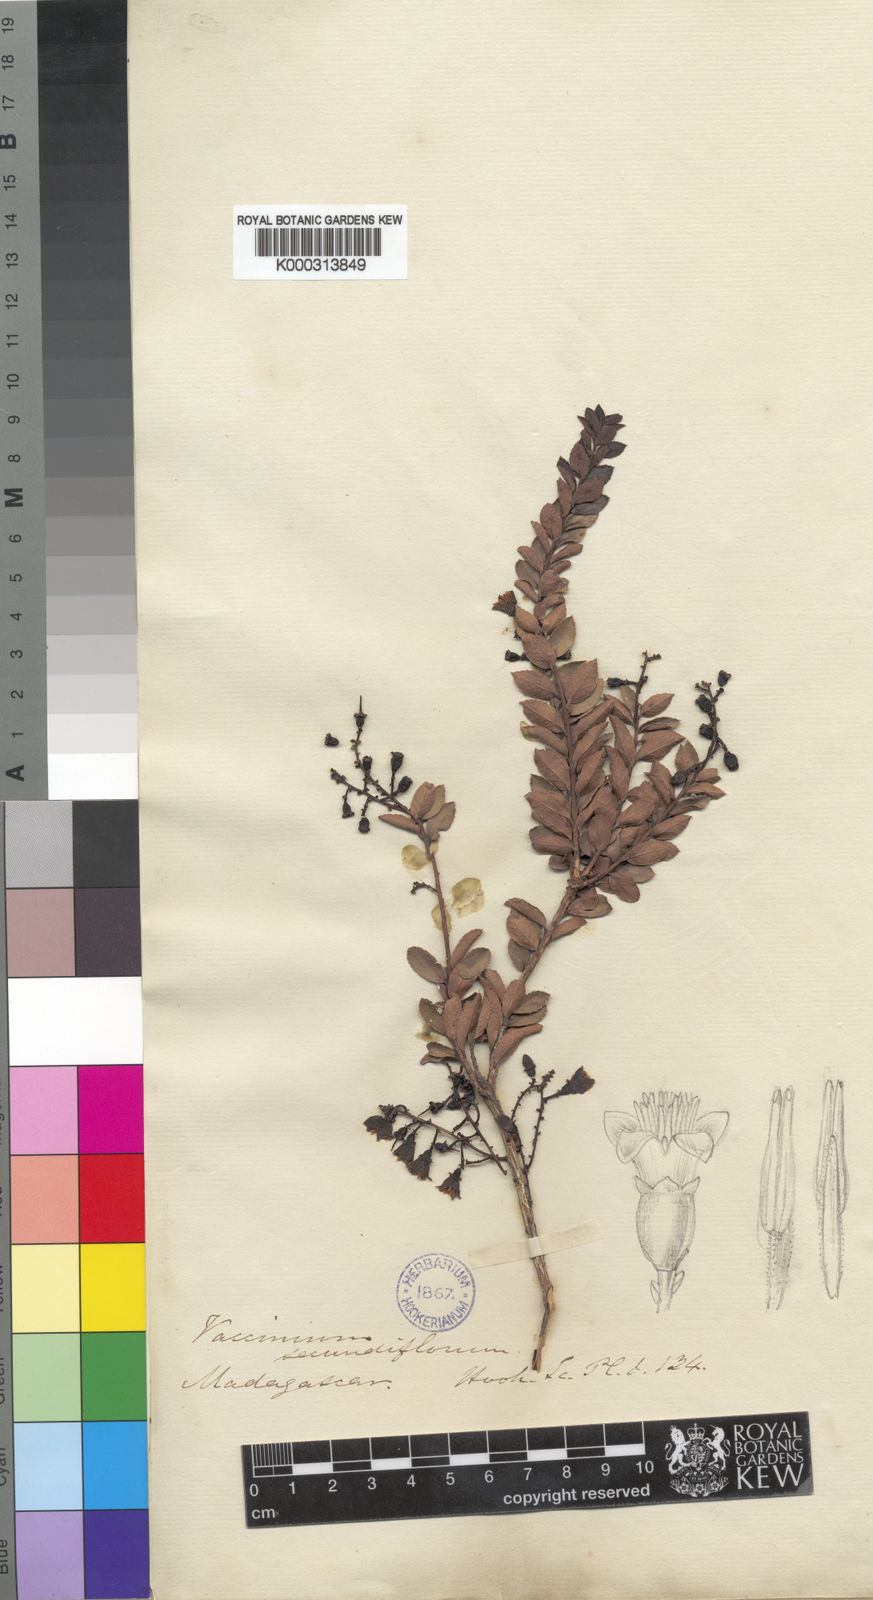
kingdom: Plantae
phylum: Tracheophyta
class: Magnoliopsida
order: Ericales
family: Ericaceae
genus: Vaccinium
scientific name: Vaccinium madagascariense
